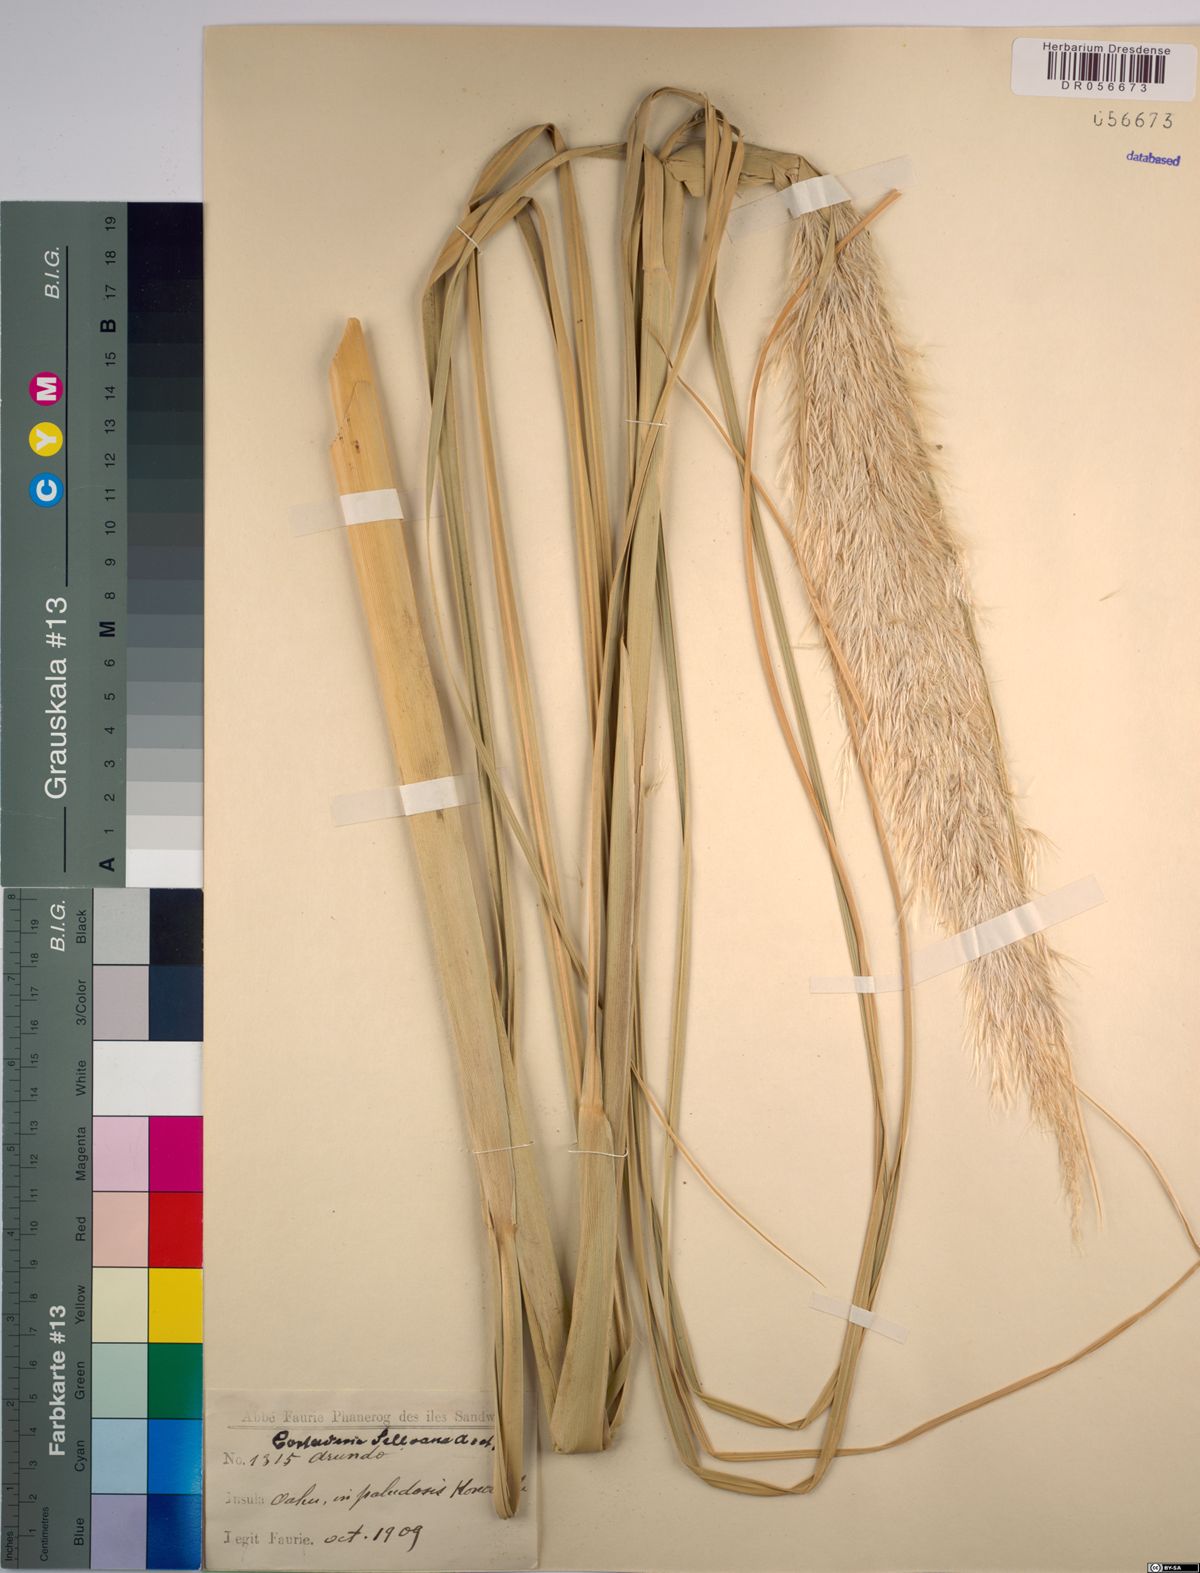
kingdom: Plantae
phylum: Tracheophyta
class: Liliopsida
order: Poales
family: Poaceae
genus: Cortaderia
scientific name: Cortaderia selloana
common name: Uruguayan pampas grass
